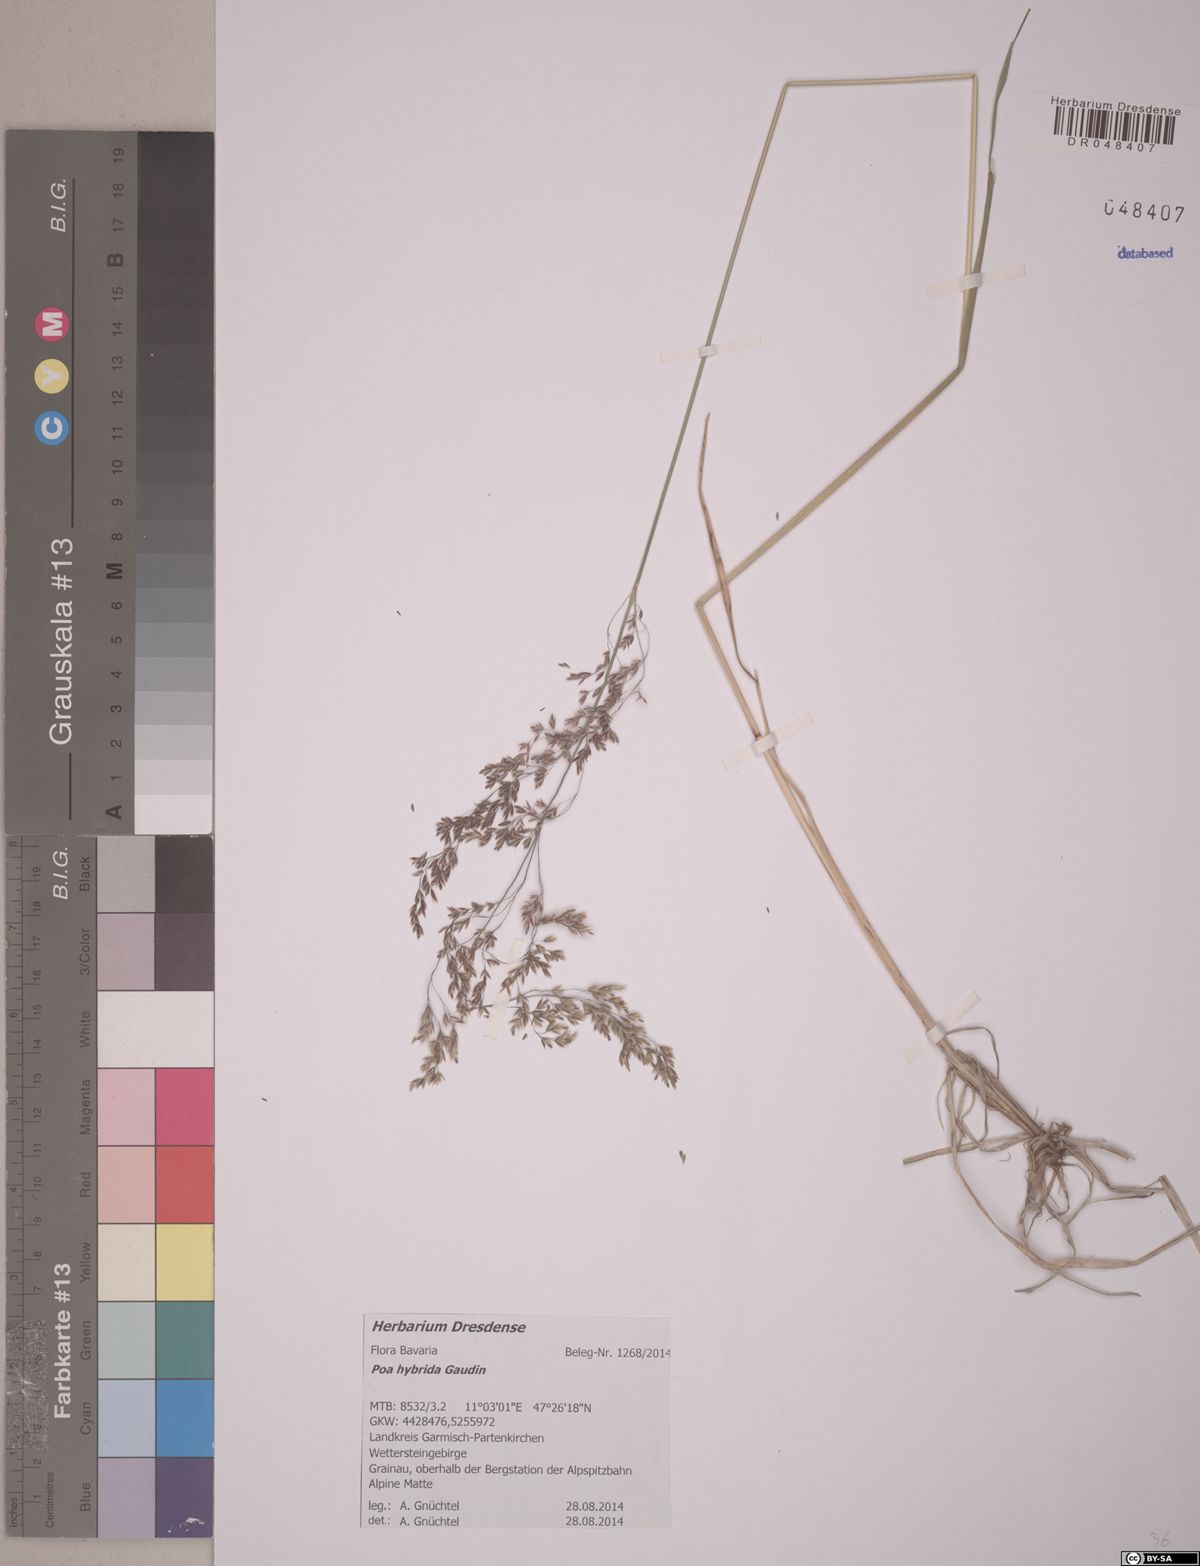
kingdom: Plantae
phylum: Tracheophyta
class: Liliopsida
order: Poales
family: Poaceae
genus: Poa
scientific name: Poa hybrida
